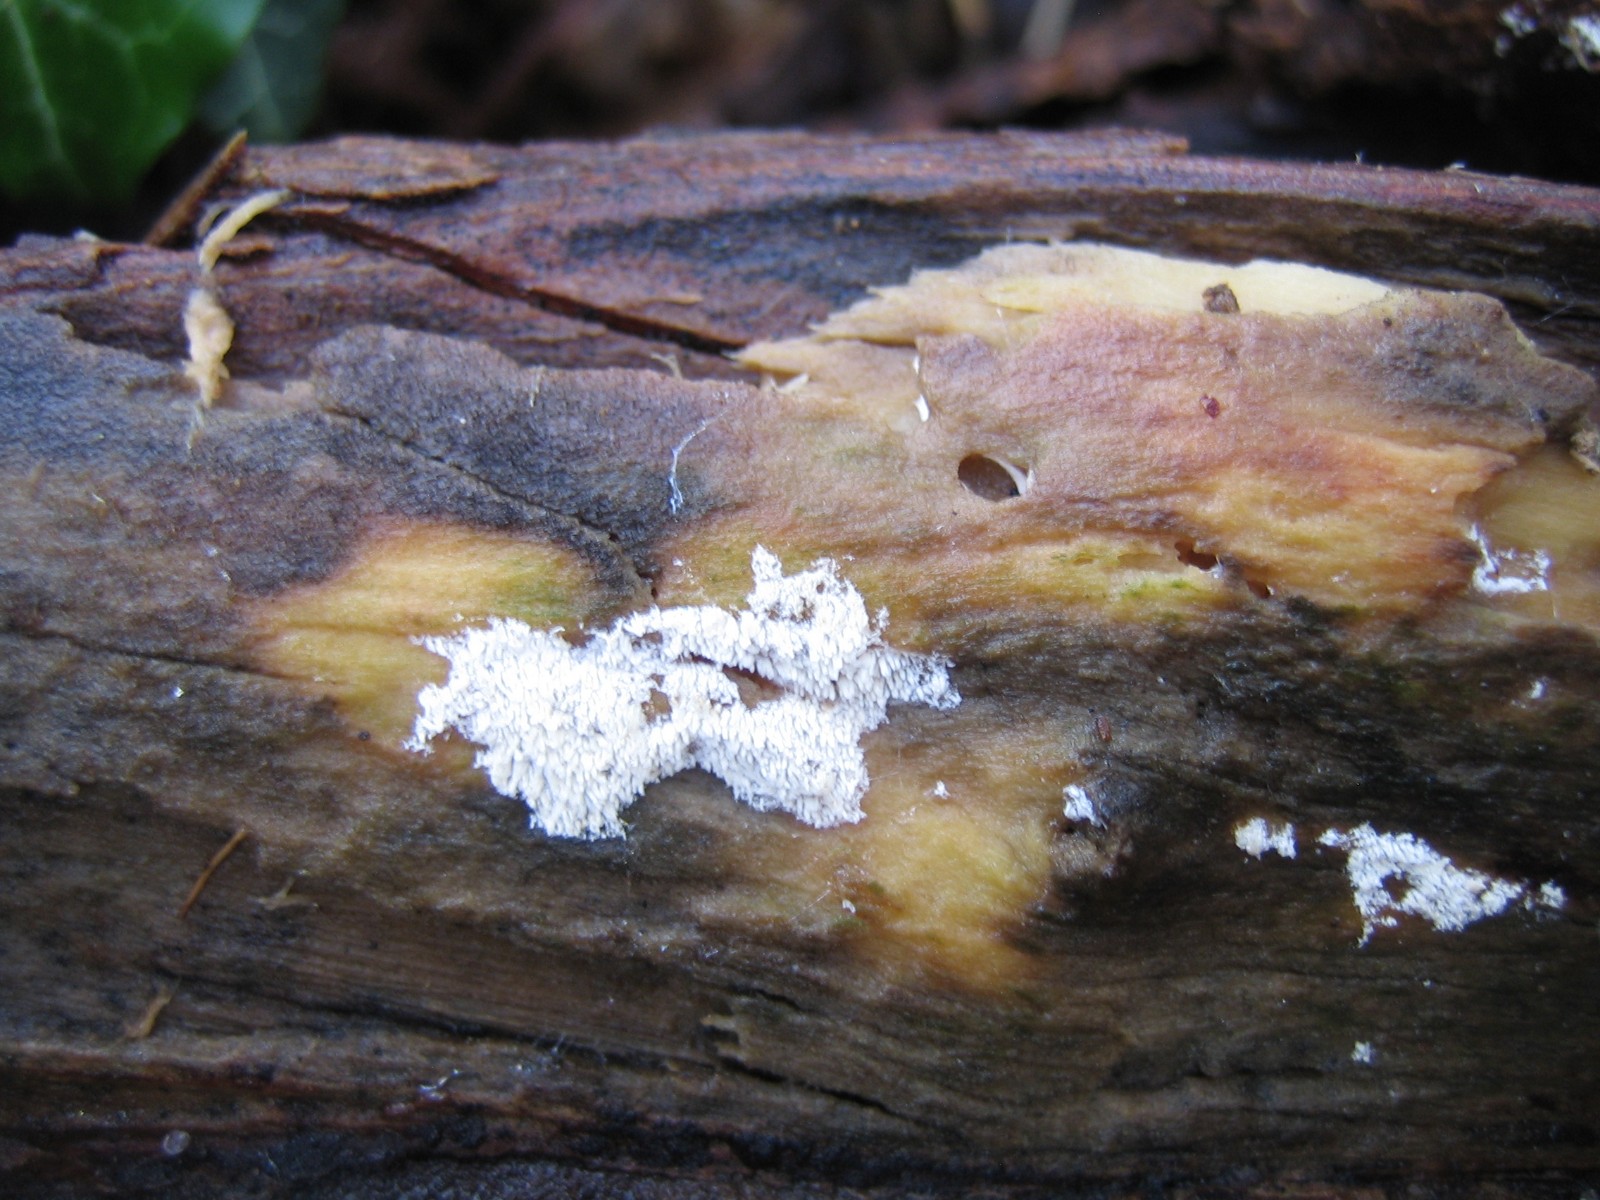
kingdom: Fungi
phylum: Basidiomycota
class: Agaricomycetes
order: Hymenochaetales
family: Schizoporaceae
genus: Xylodon
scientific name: Xylodon
